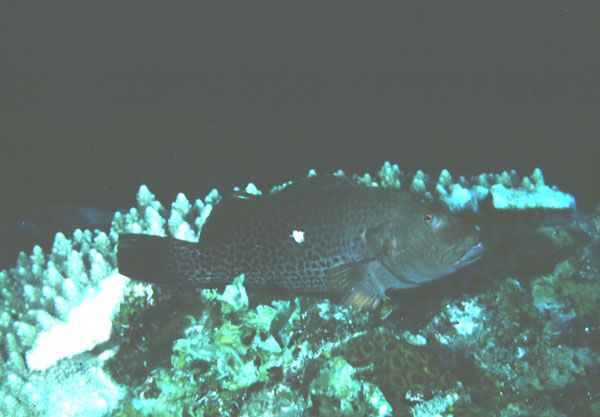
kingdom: Animalia
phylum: Chordata
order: Perciformes
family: Cirrhitidae
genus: Paracirrhites
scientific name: Paracirrhites hemistictus
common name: Halfspotted hawkfish
